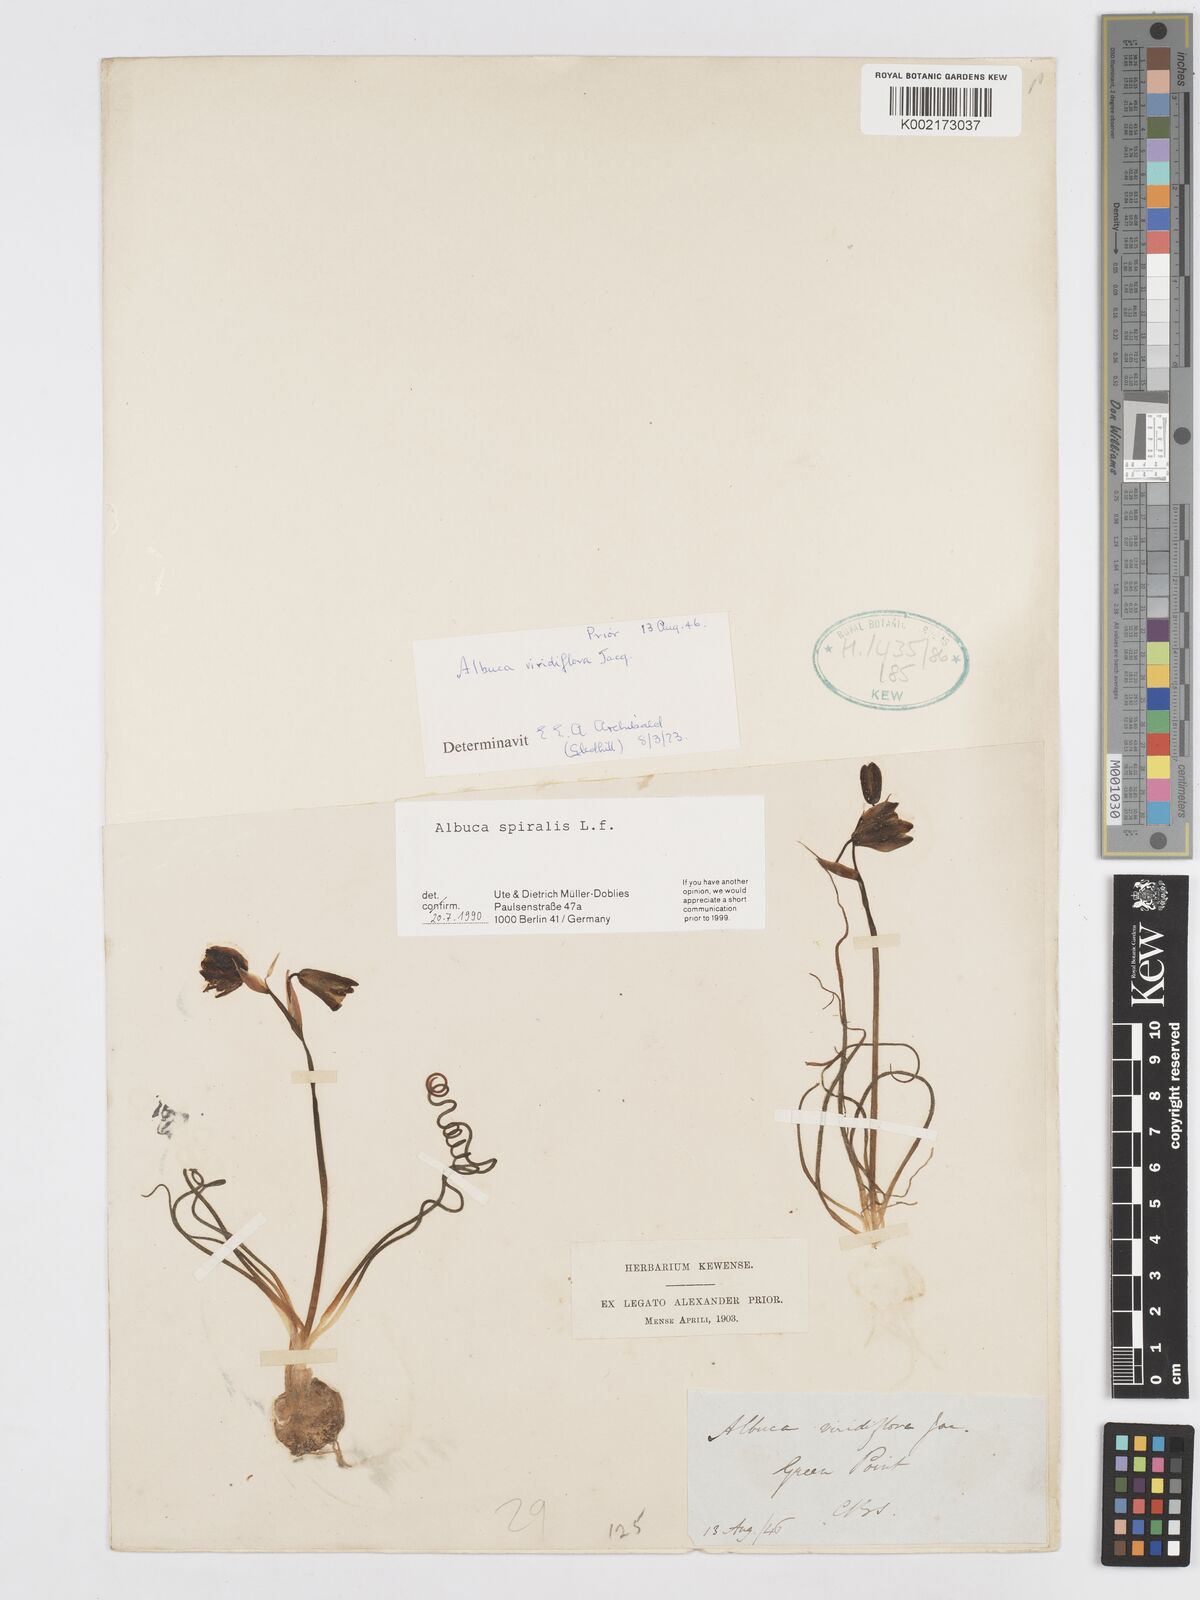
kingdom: Plantae
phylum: Tracheophyta
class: Liliopsida
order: Asparagales
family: Asparagaceae
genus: Albuca
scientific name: Albuca spiralis
